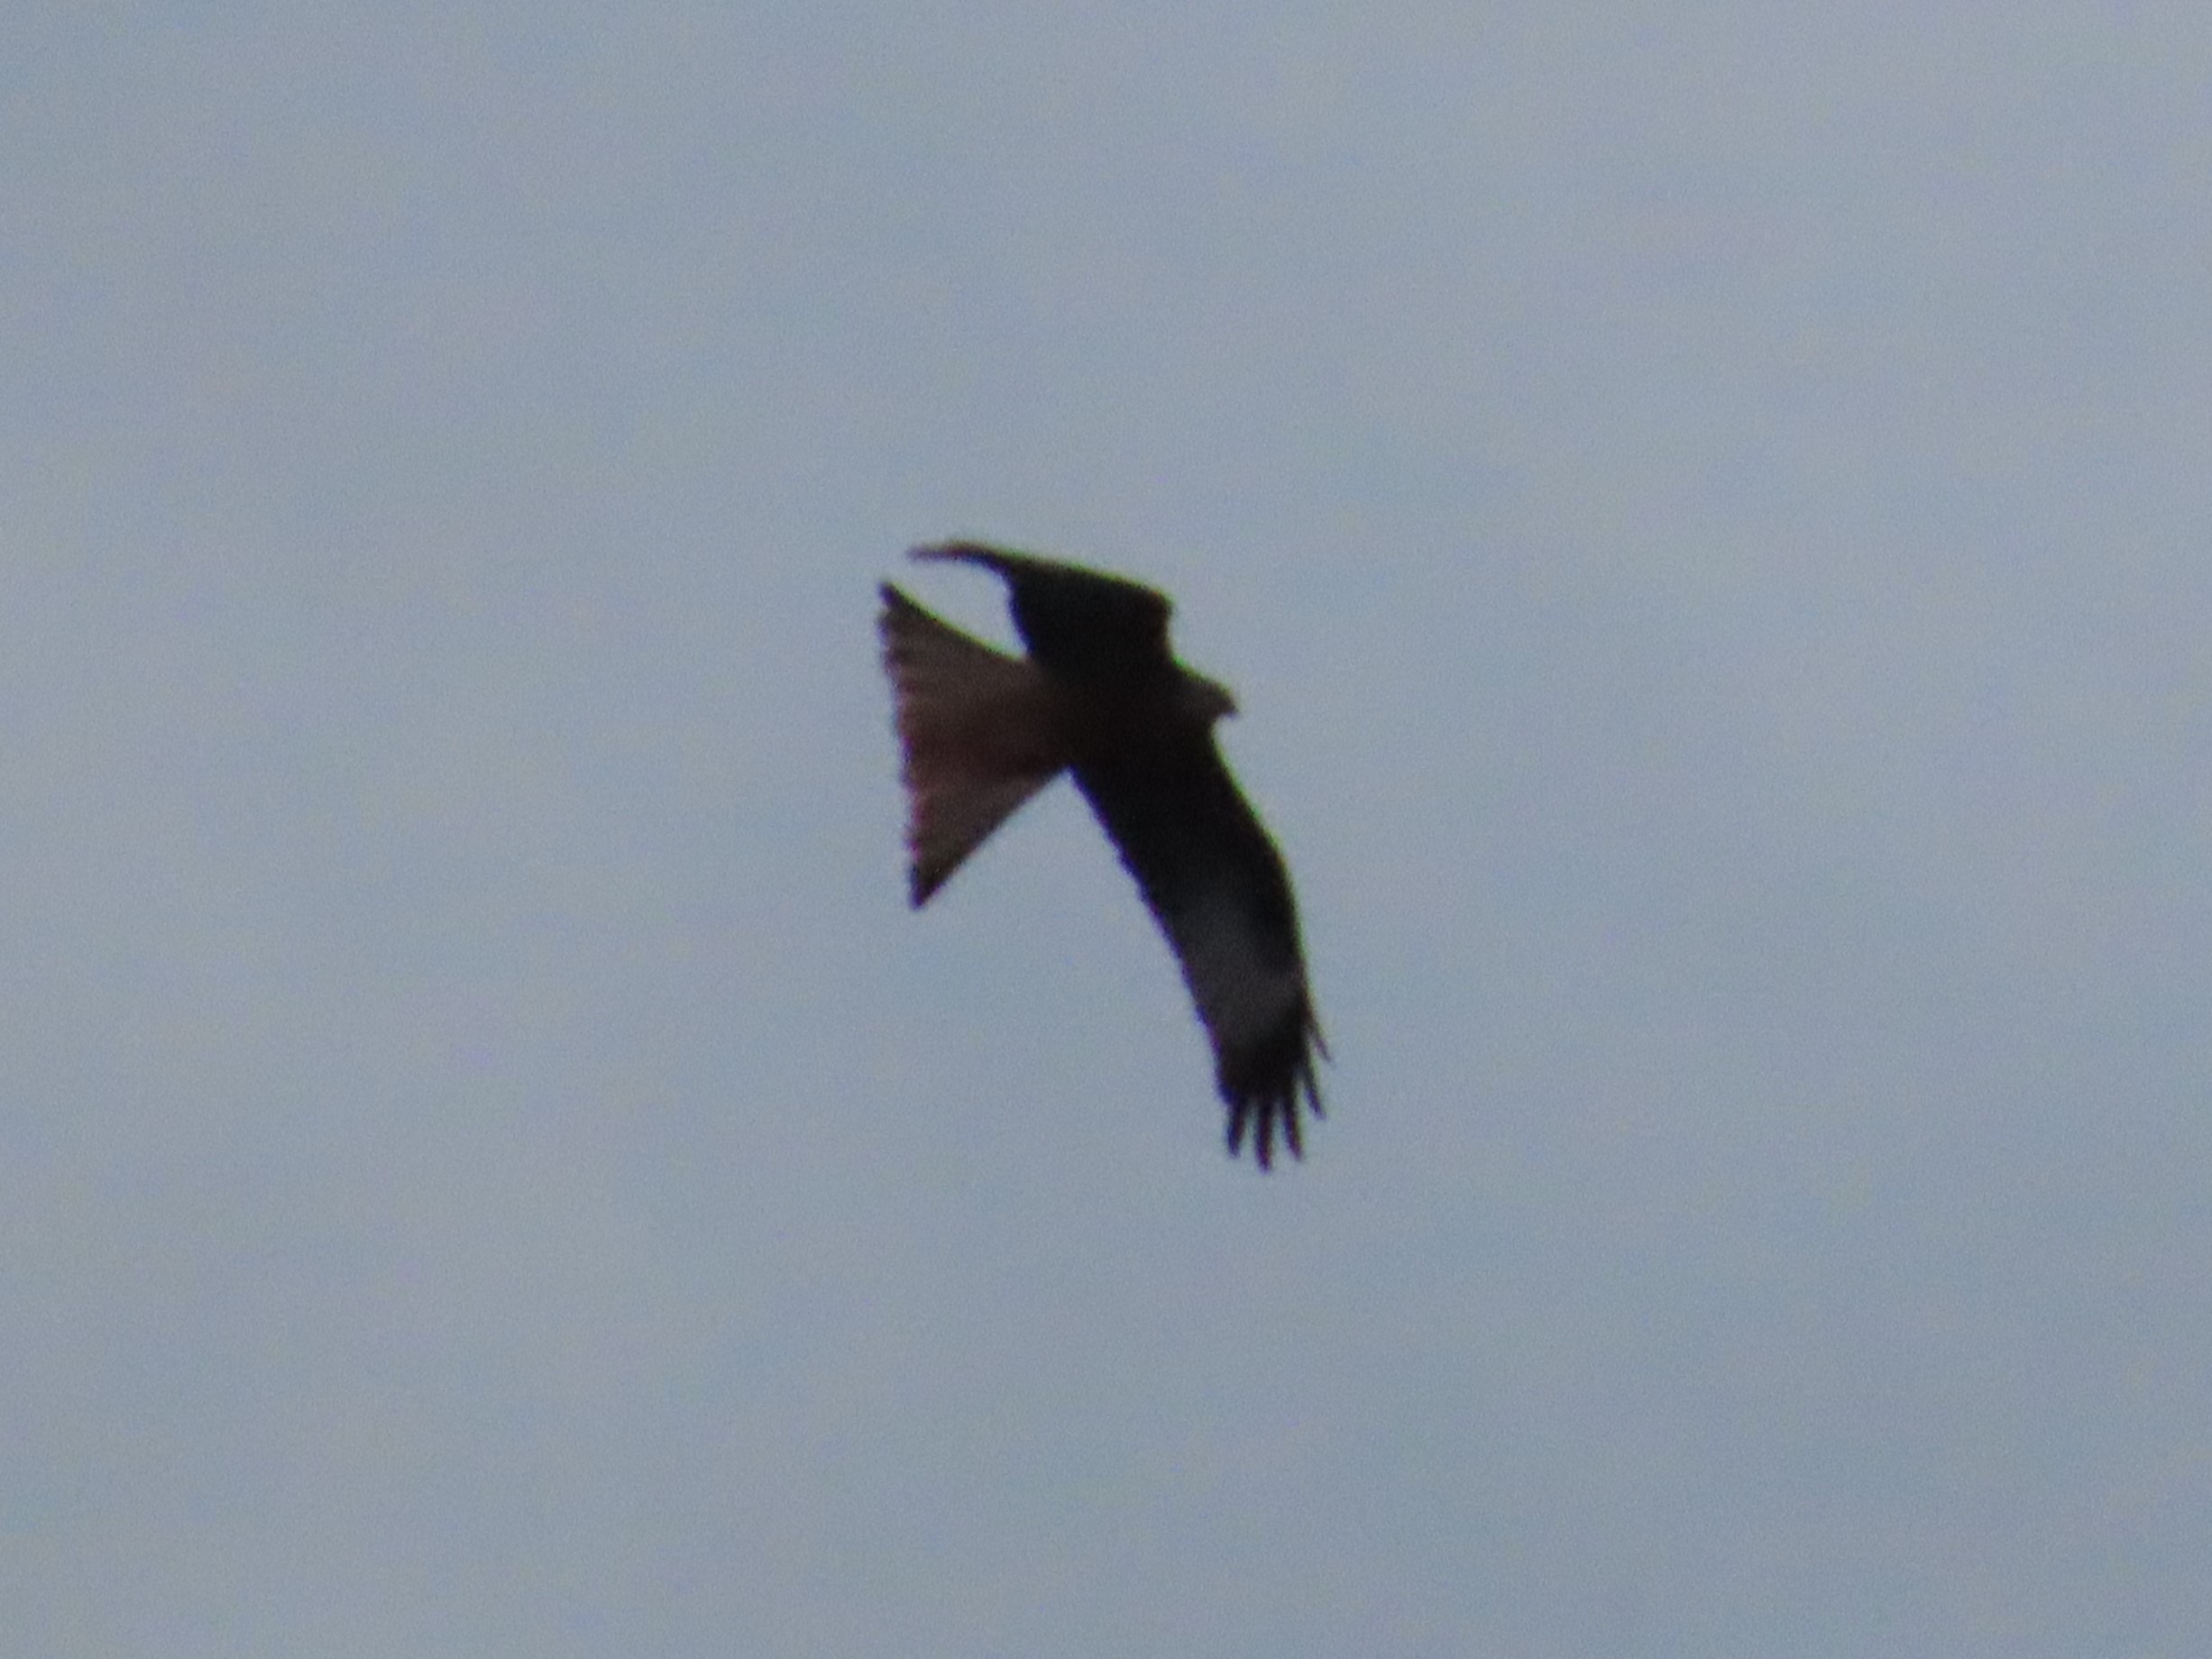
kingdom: Animalia
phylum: Chordata
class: Aves
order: Accipitriformes
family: Accipitridae
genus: Milvus
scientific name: Milvus milvus
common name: Rød glente
